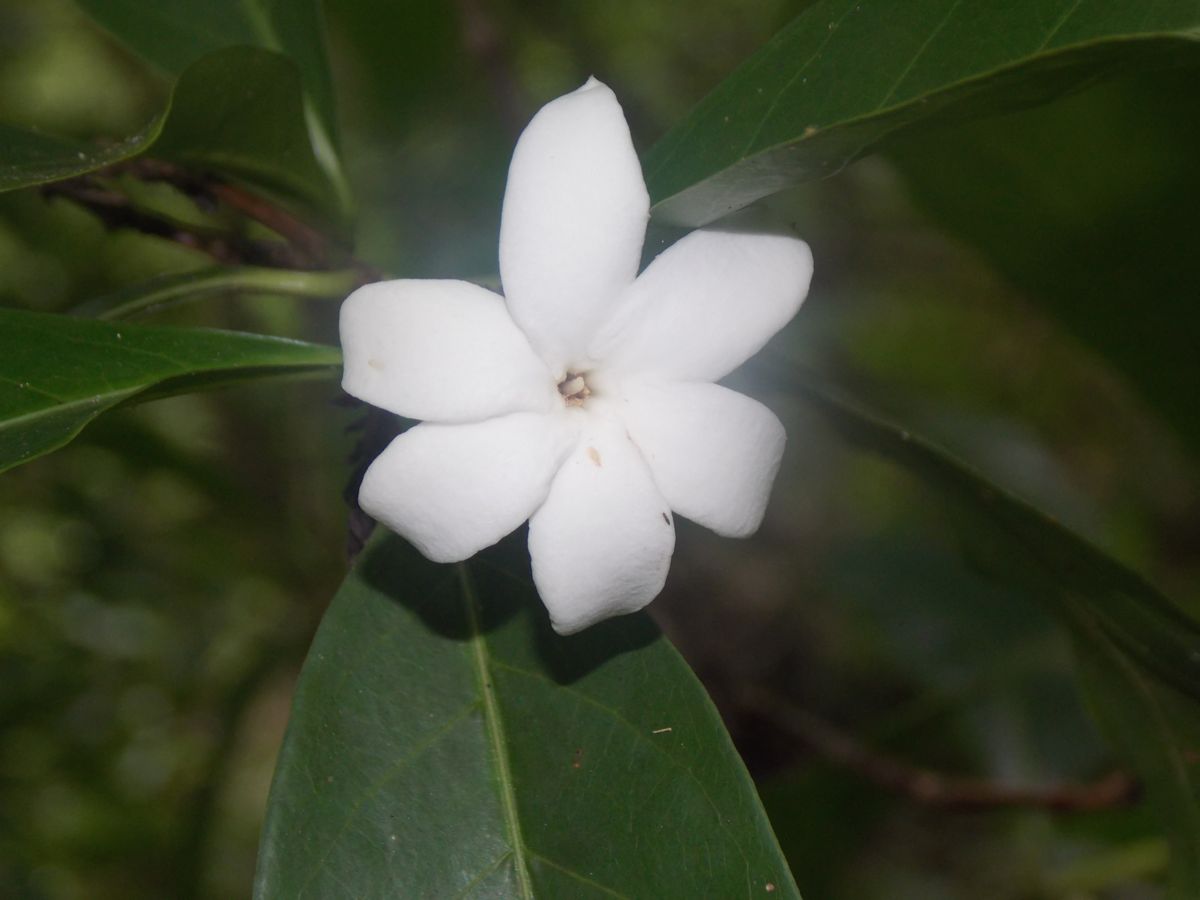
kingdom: Plantae
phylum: Tracheophyta
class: Magnoliopsida
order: Gentianales
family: Rubiaceae
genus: Alibertia
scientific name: Alibertia edulis
